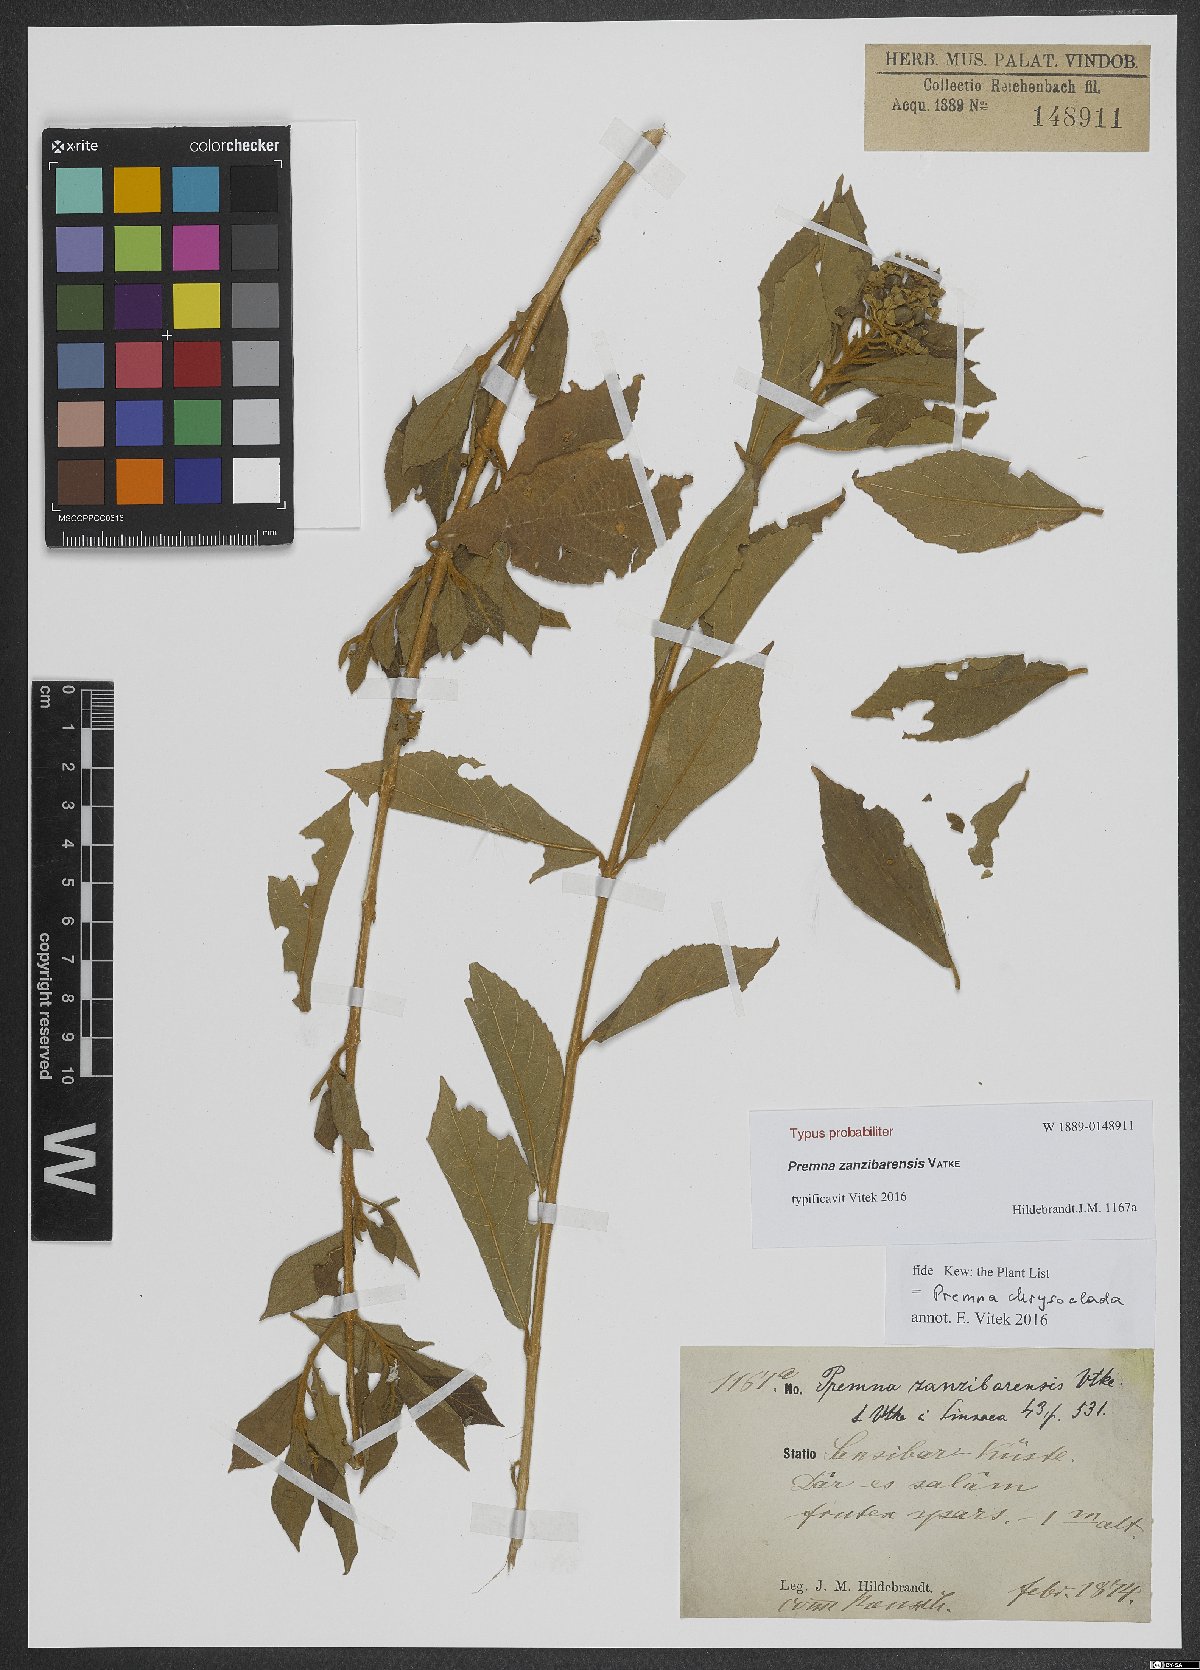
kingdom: Plantae
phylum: Tracheophyta
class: Magnoliopsida
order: Lamiales
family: Lamiaceae
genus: Premna
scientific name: Premna chrysoclada
